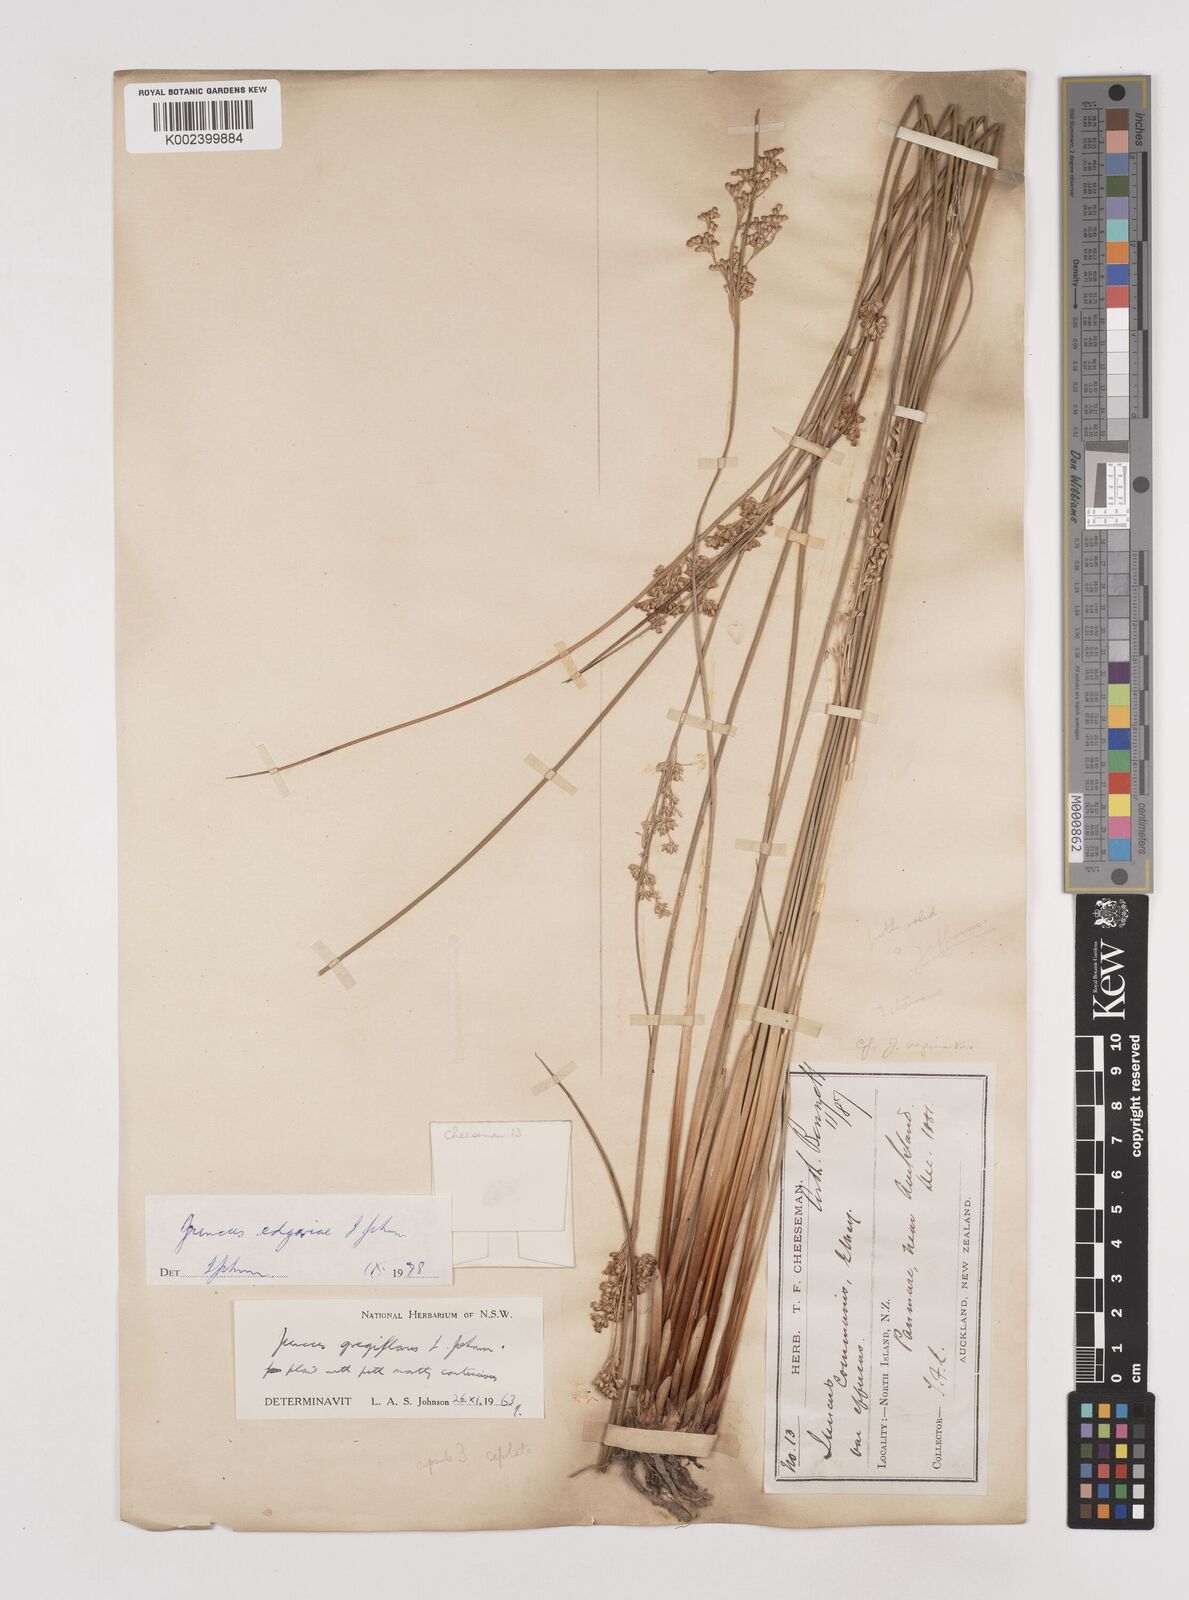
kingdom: Plantae
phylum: Tracheophyta
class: Liliopsida
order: Poales
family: Juncaceae
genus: Juncus
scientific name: Juncus gregiflorus
